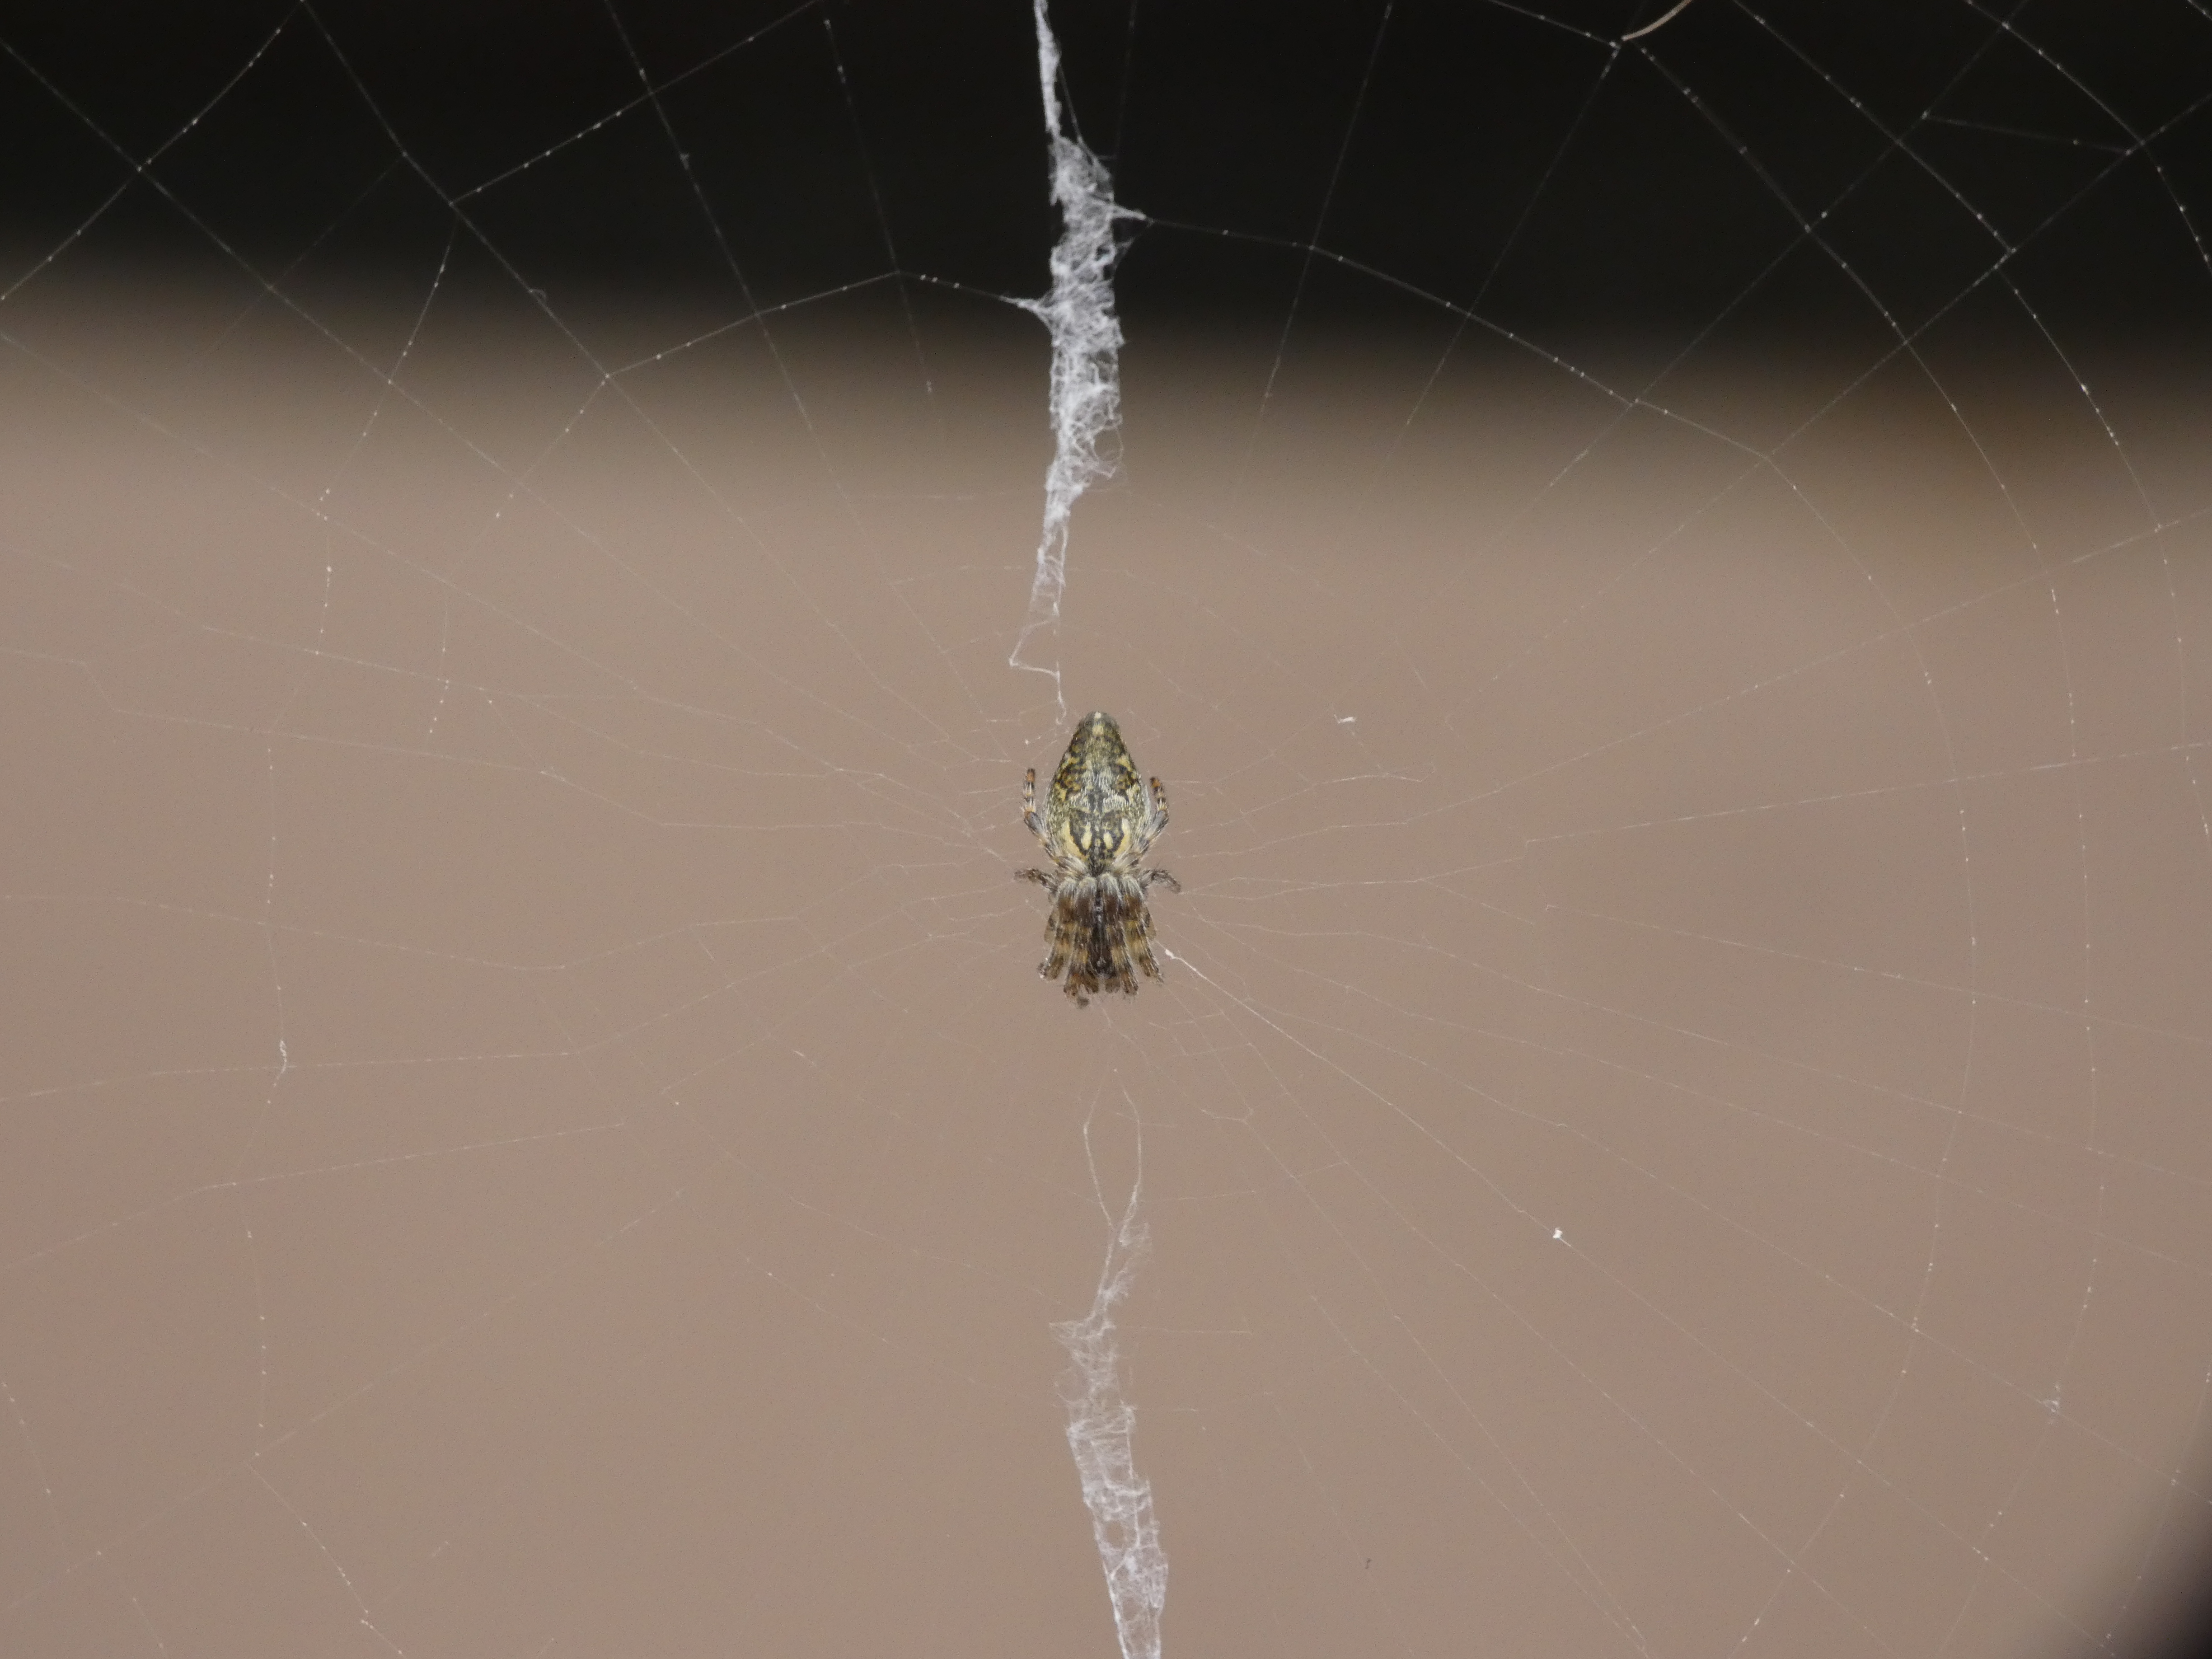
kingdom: Animalia
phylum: Arthropoda
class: Arachnida
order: Araneae
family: Araneidae
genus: Cyclosa
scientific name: Cyclosa conica
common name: Keglerumpe
